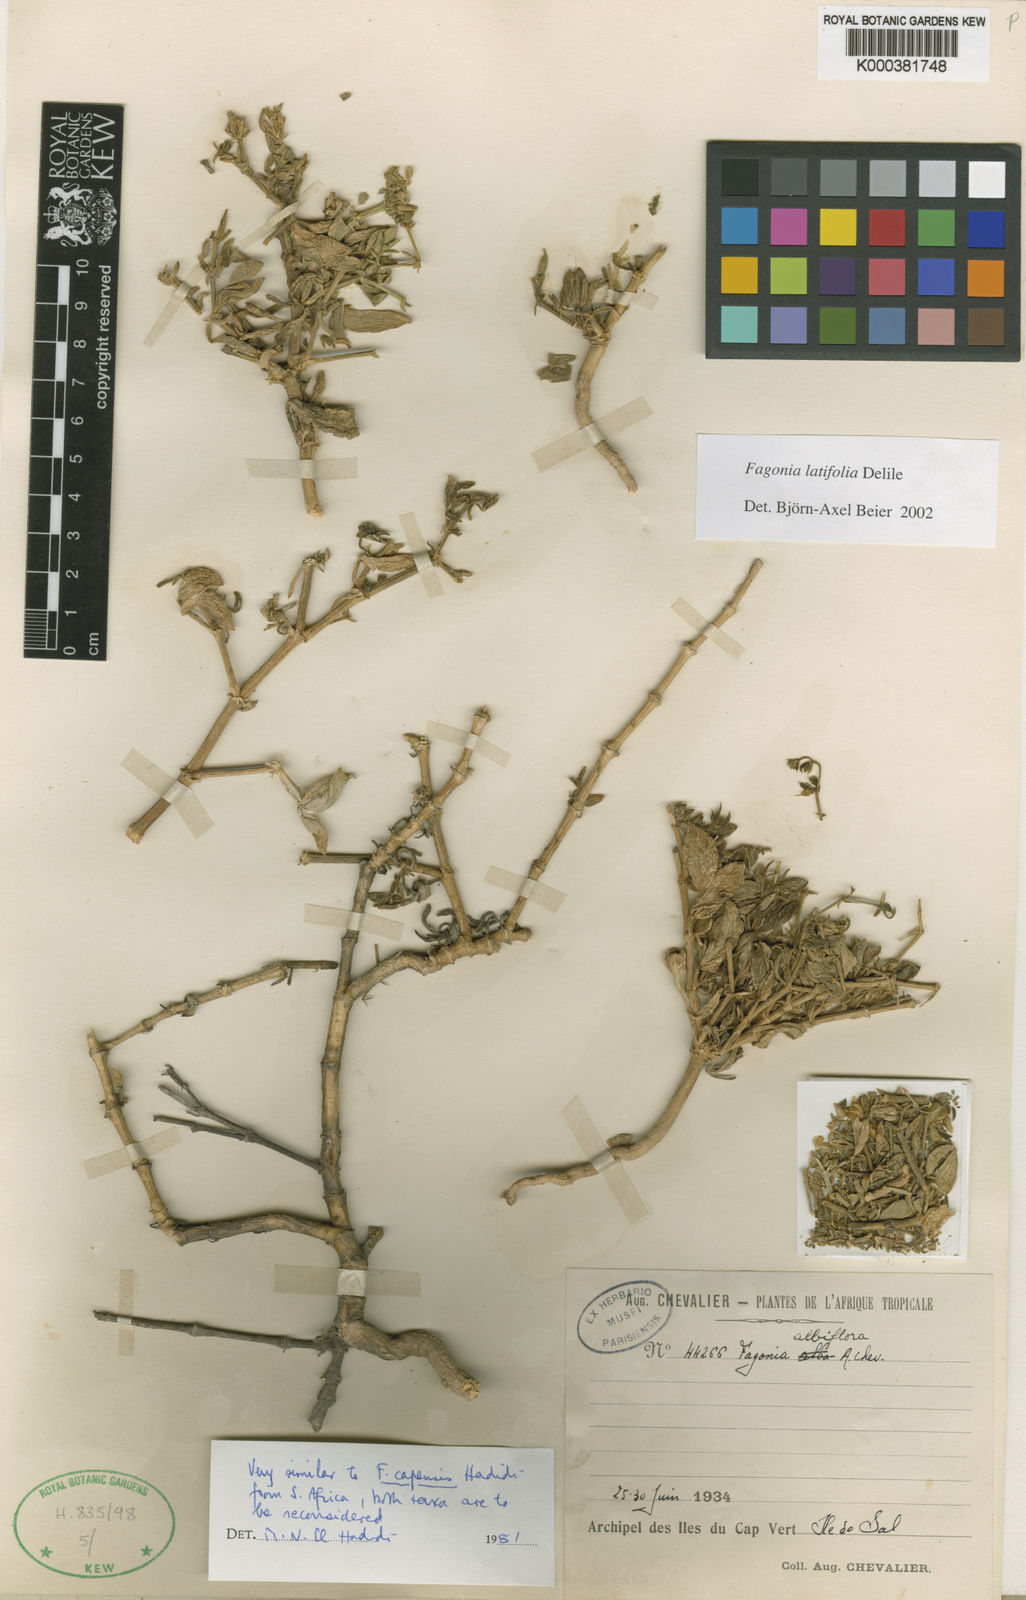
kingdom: Plantae
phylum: Tracheophyta
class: Magnoliopsida
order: Zygophyllales
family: Zygophyllaceae
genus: Fagonia
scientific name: Fagonia latifolia
